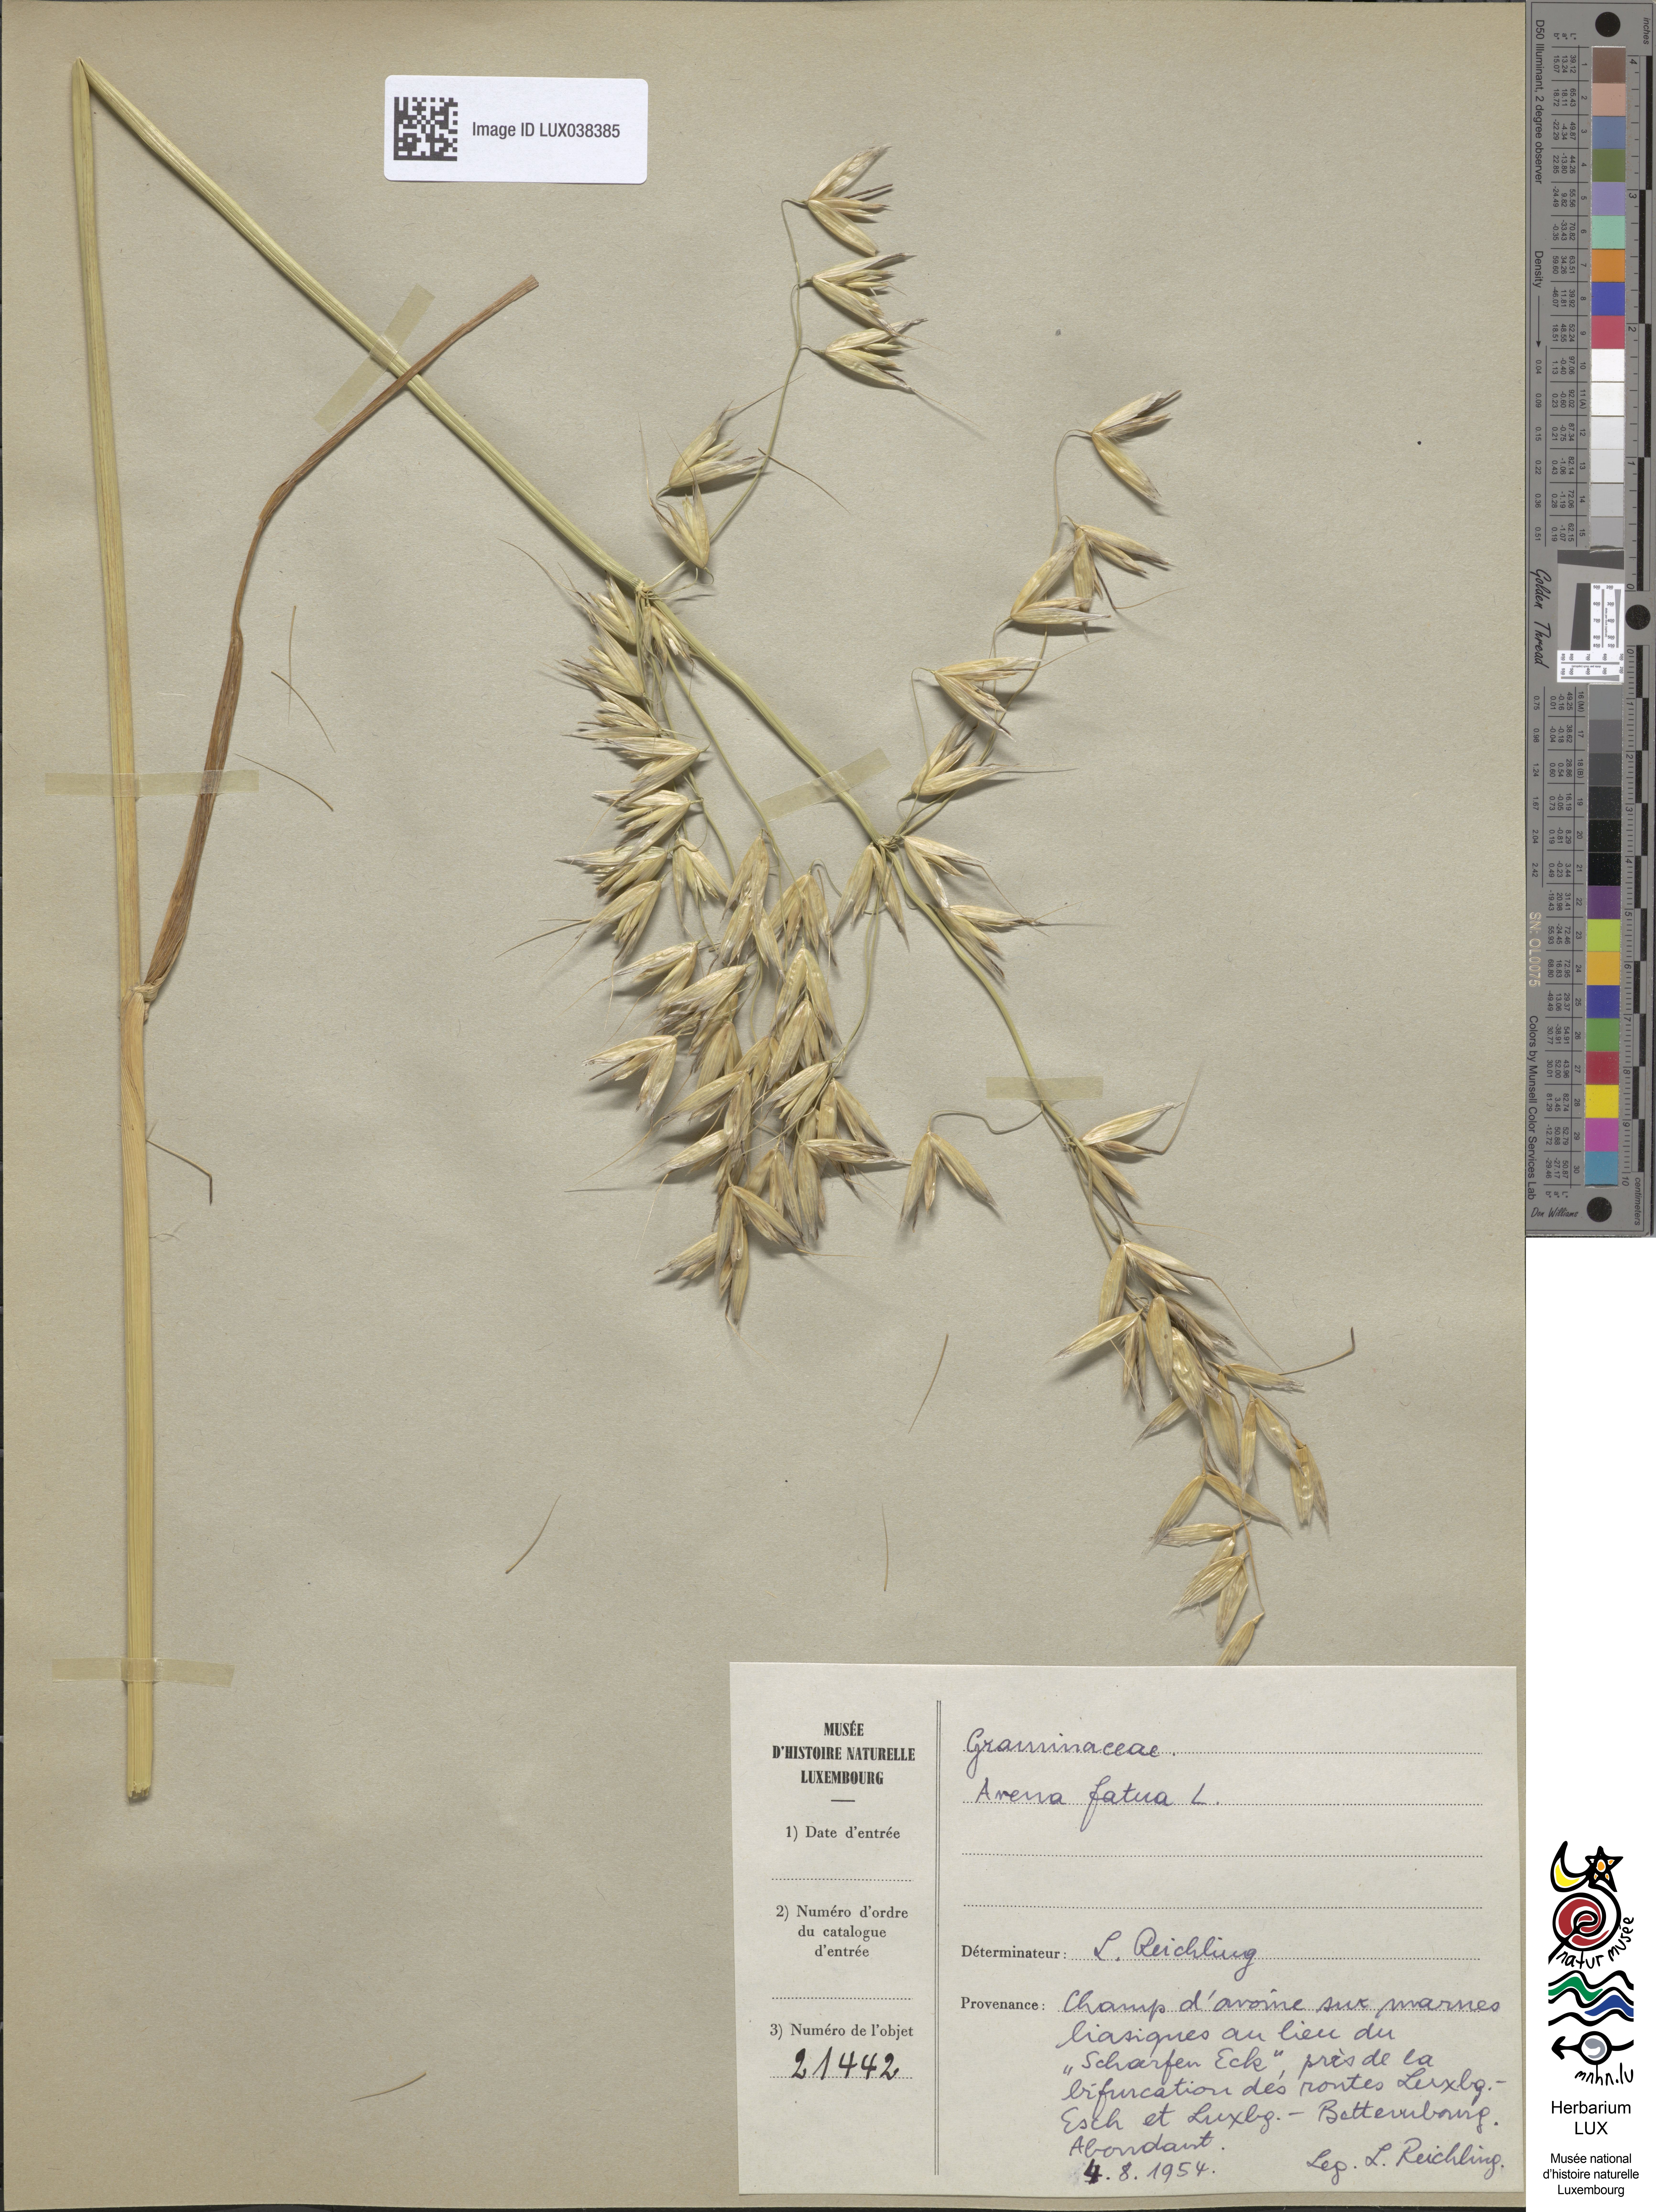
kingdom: Plantae
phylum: Tracheophyta
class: Liliopsida
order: Poales
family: Poaceae
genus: Avena
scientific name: Avena fatua
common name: Wild oat
